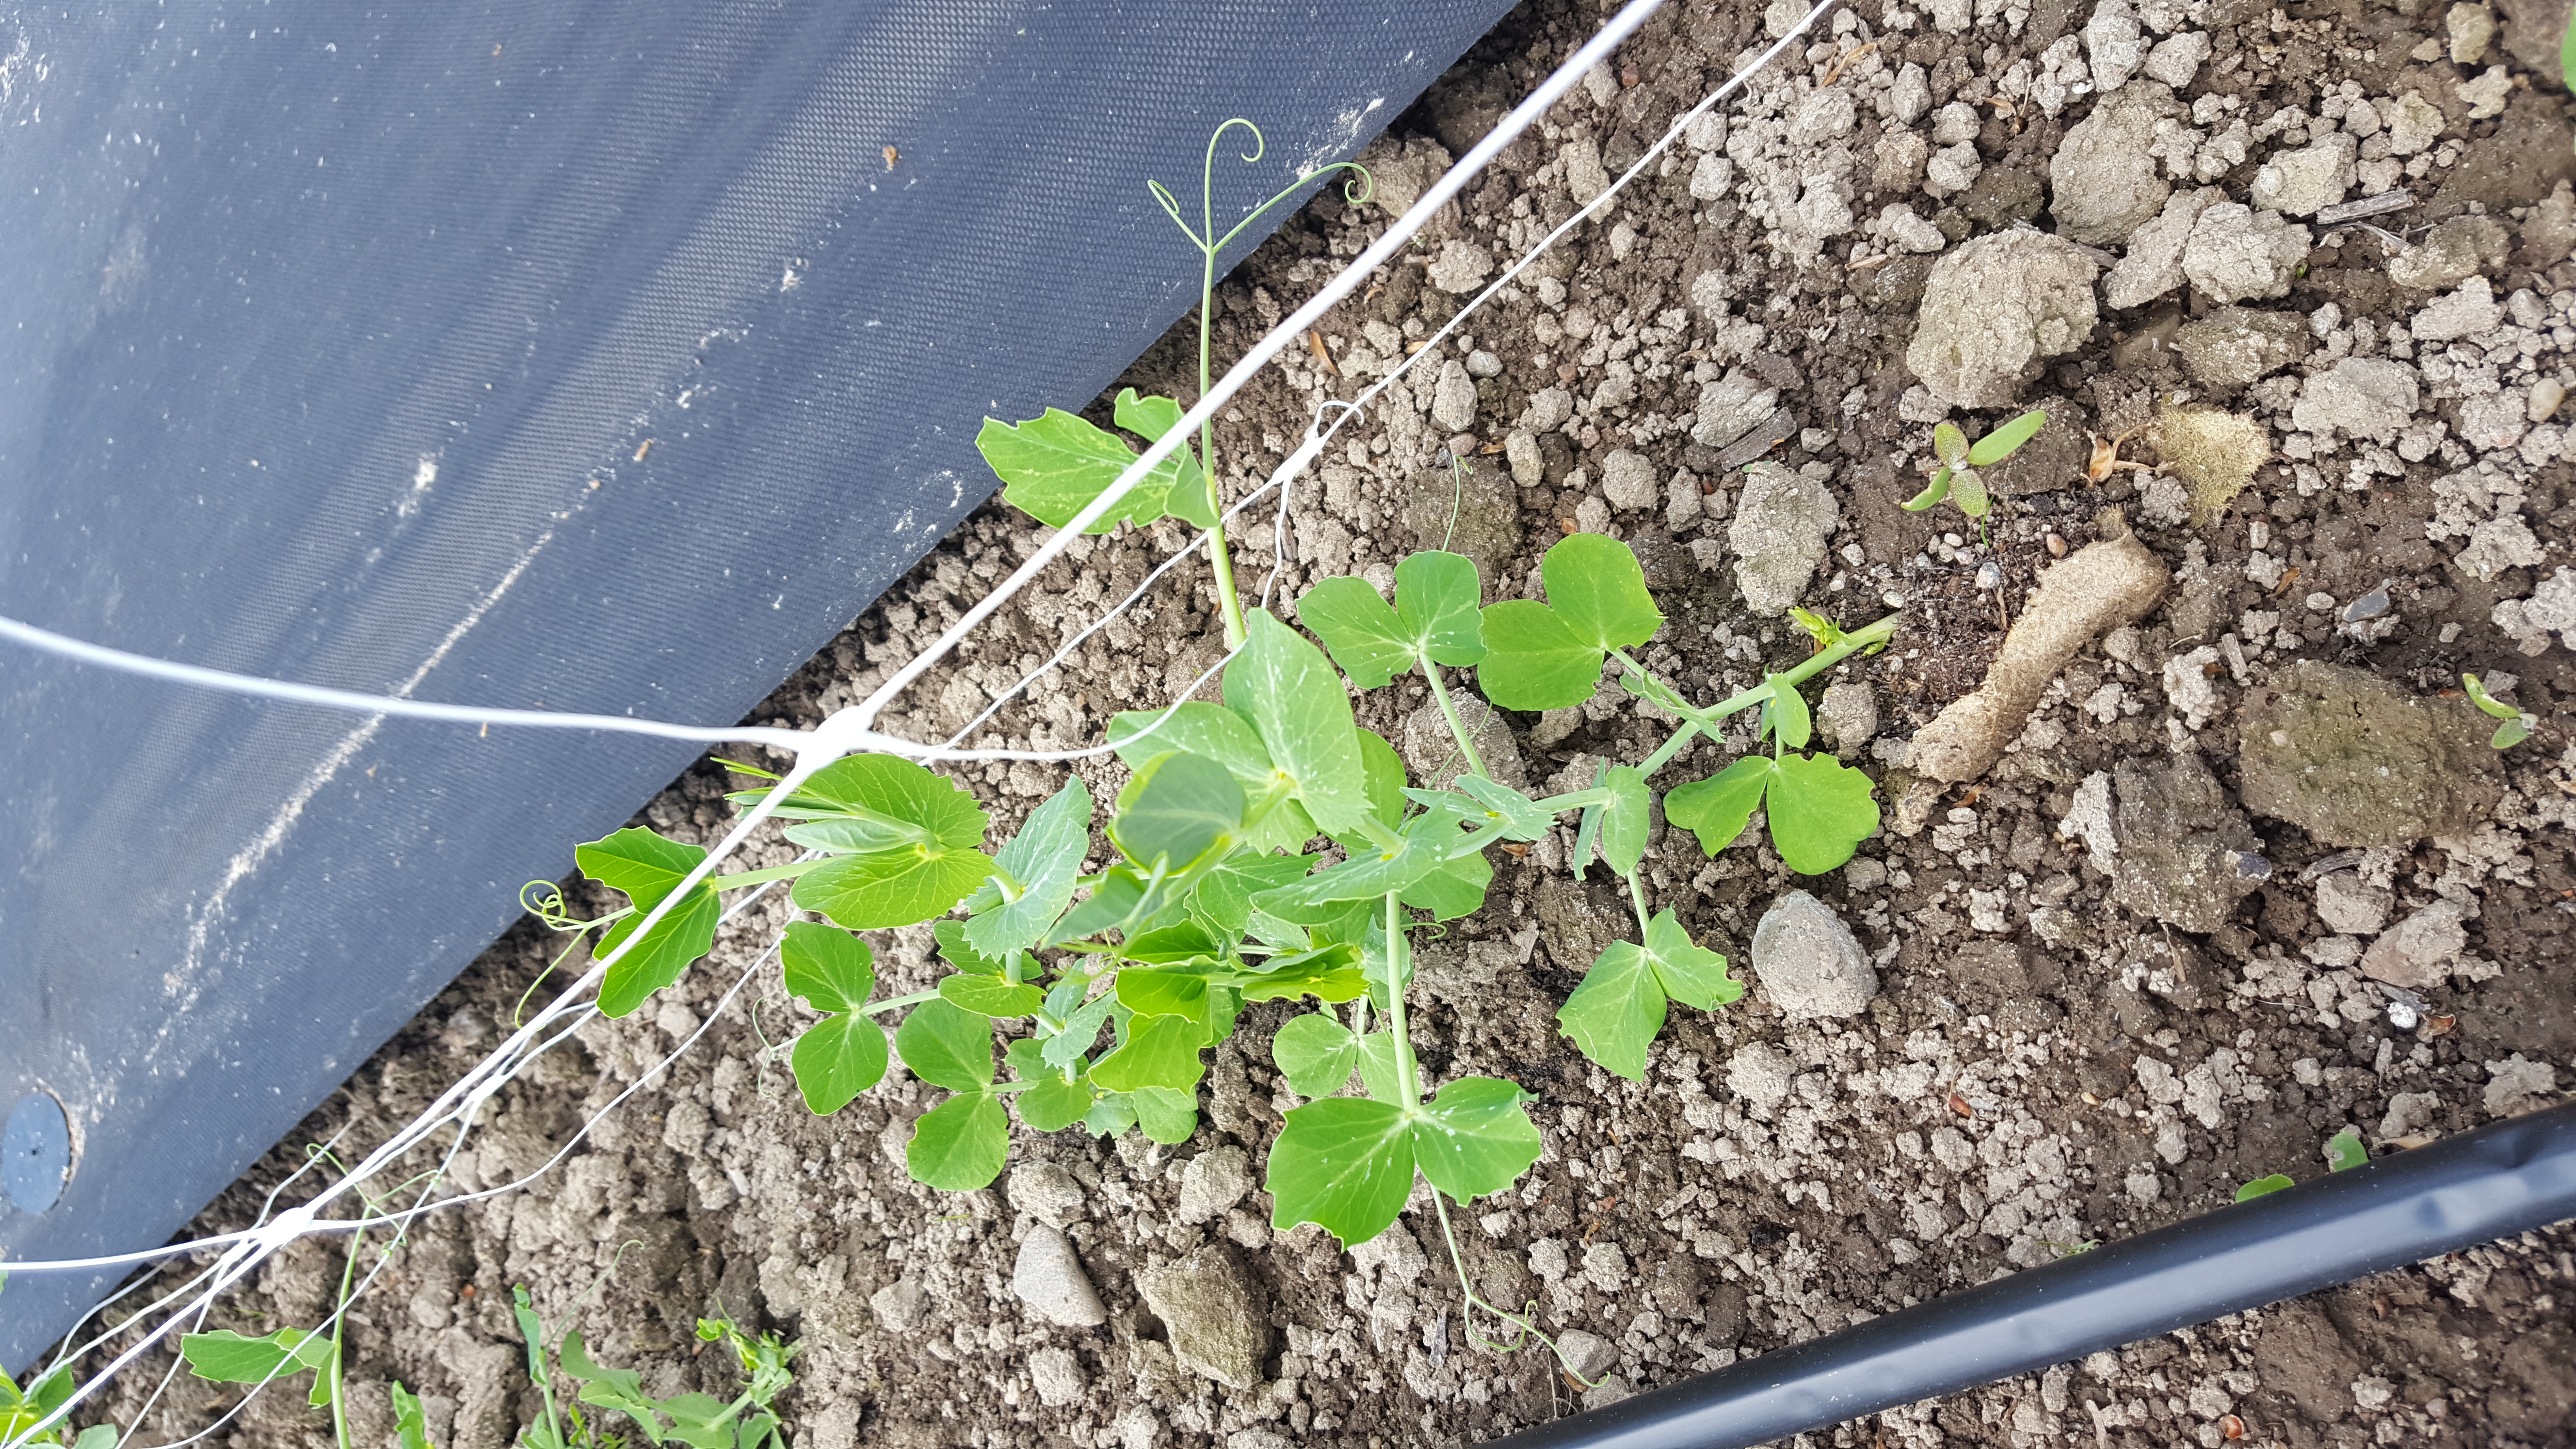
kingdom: Plantae
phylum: Tracheophyta
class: Magnoliopsida
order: Fabales
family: Fabaceae
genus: Lathyrus
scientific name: Lathyrus oleraceus
